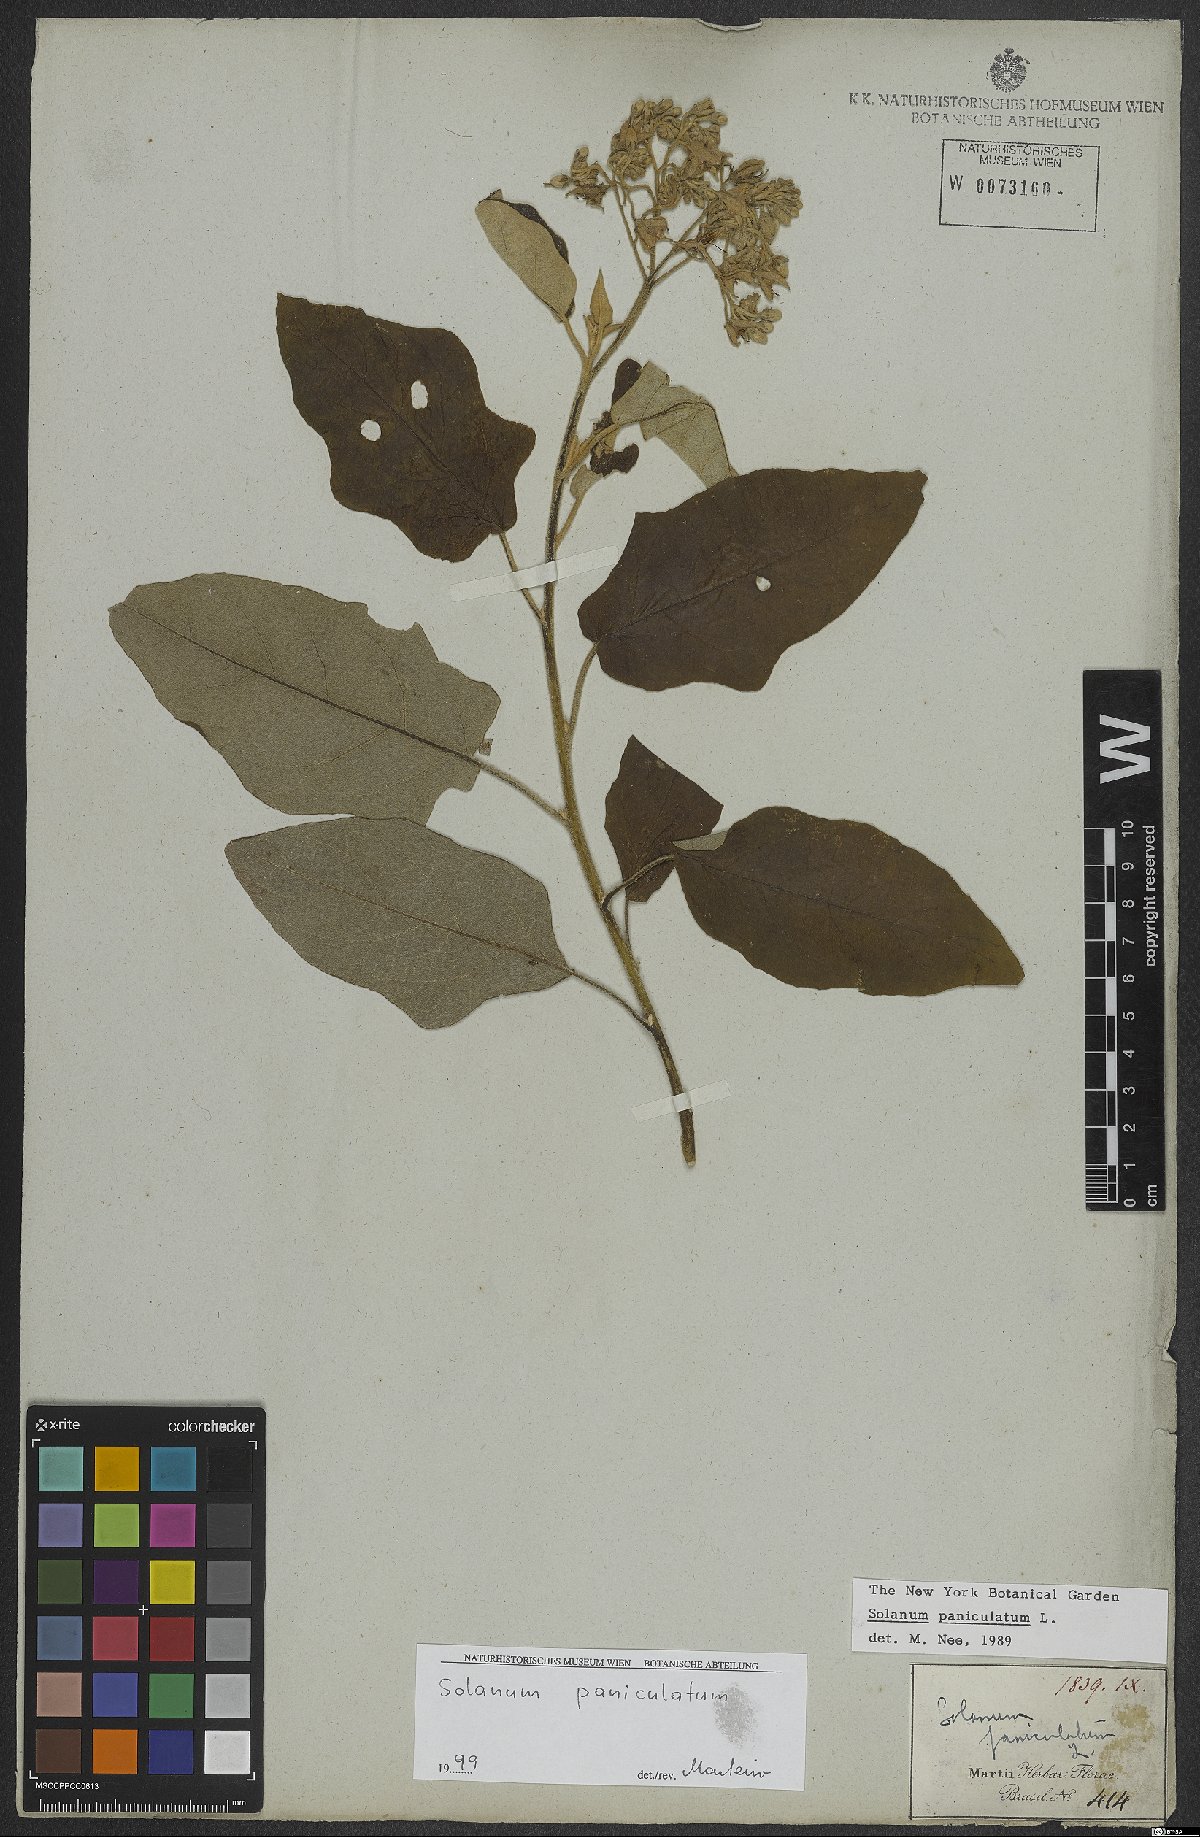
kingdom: Plantae
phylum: Tracheophyta
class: Magnoliopsida
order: Solanales
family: Solanaceae
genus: Solanum
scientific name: Solanum paniculatum
